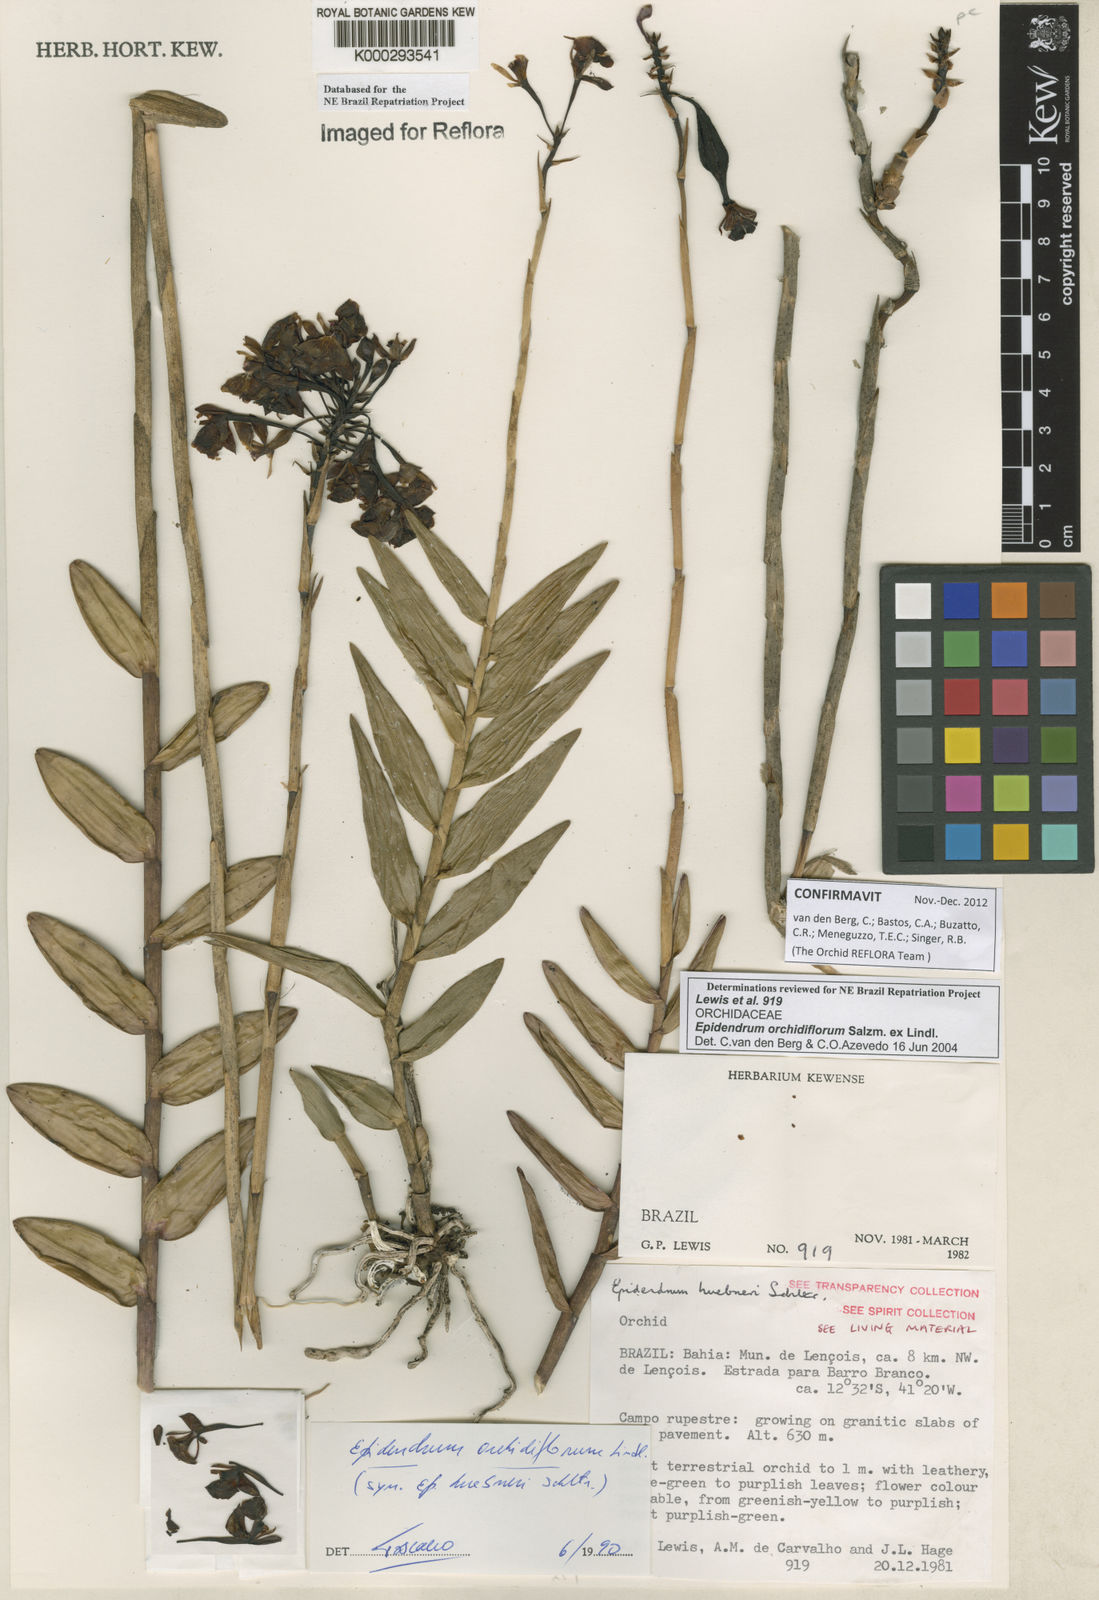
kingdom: Plantae
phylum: Tracheophyta
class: Liliopsida
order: Asparagales
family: Orchidaceae
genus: Epidendrum
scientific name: Epidendrum orchidiflorum
